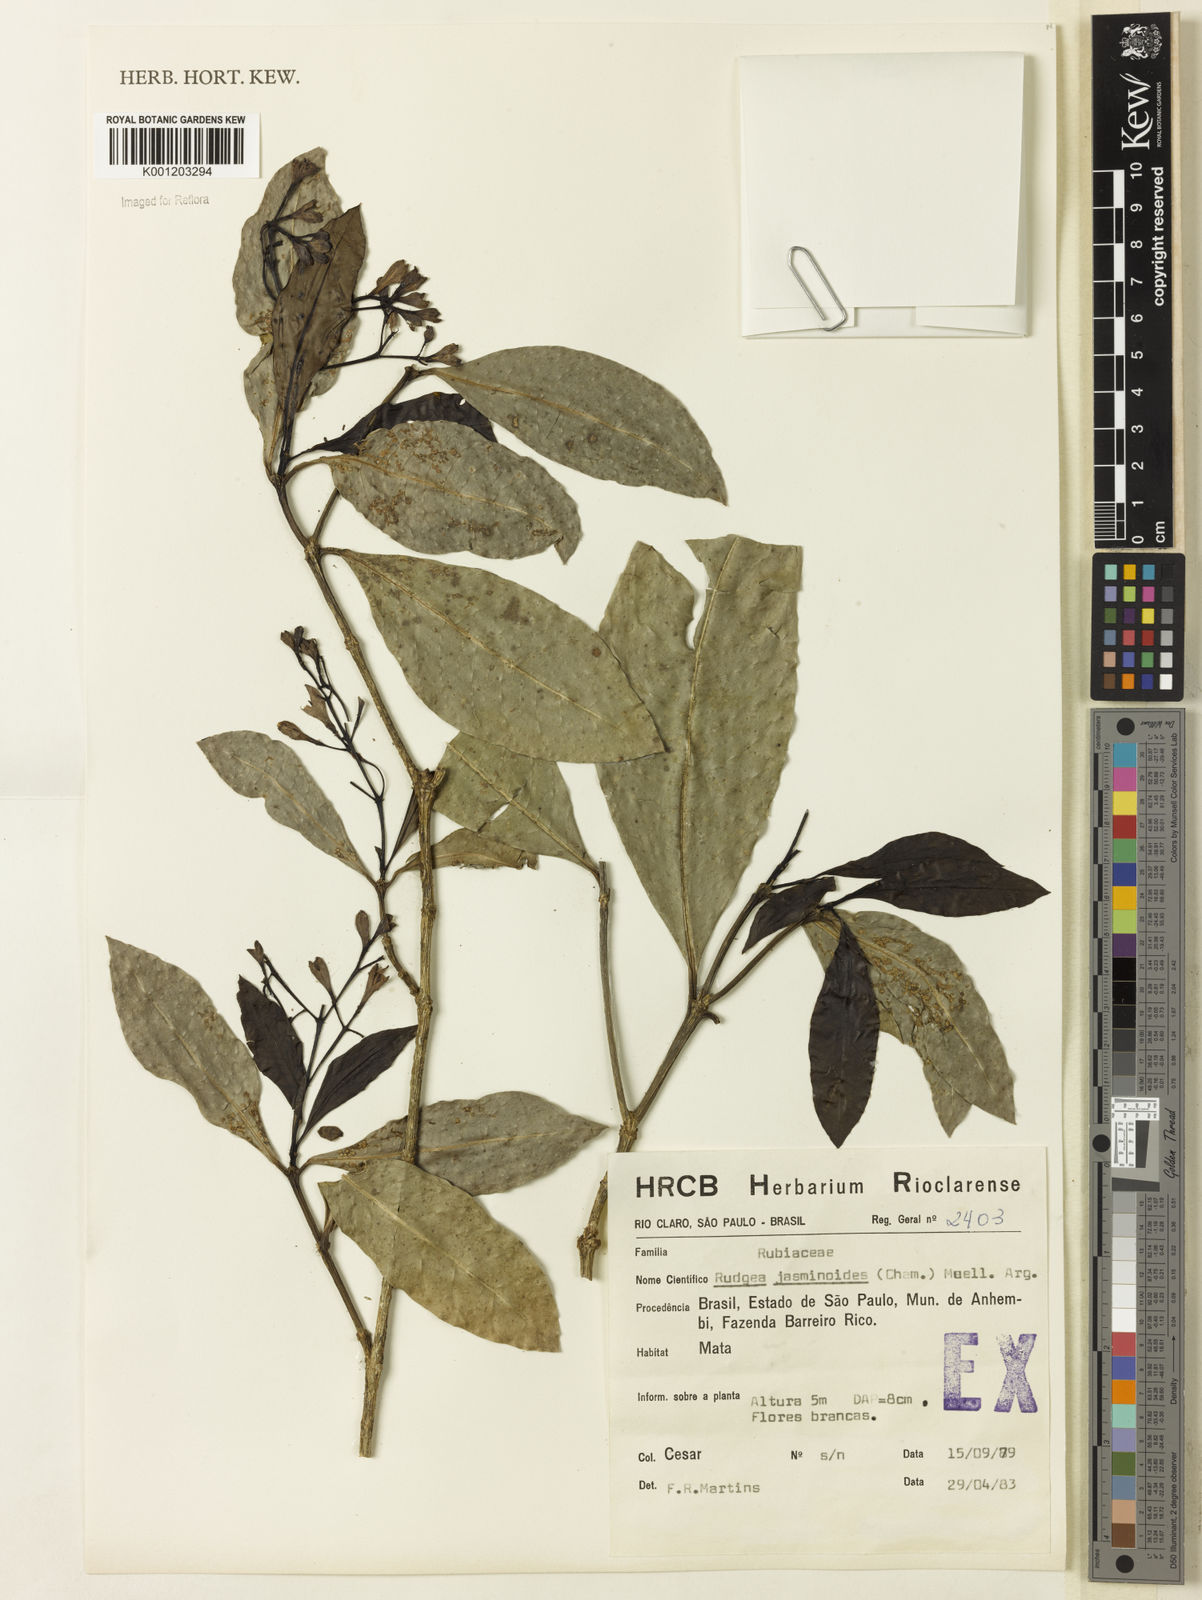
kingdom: Plantae
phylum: Tracheophyta
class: Magnoliopsida
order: Gentianales
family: Rubiaceae
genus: Rudgea
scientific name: Rudgea
